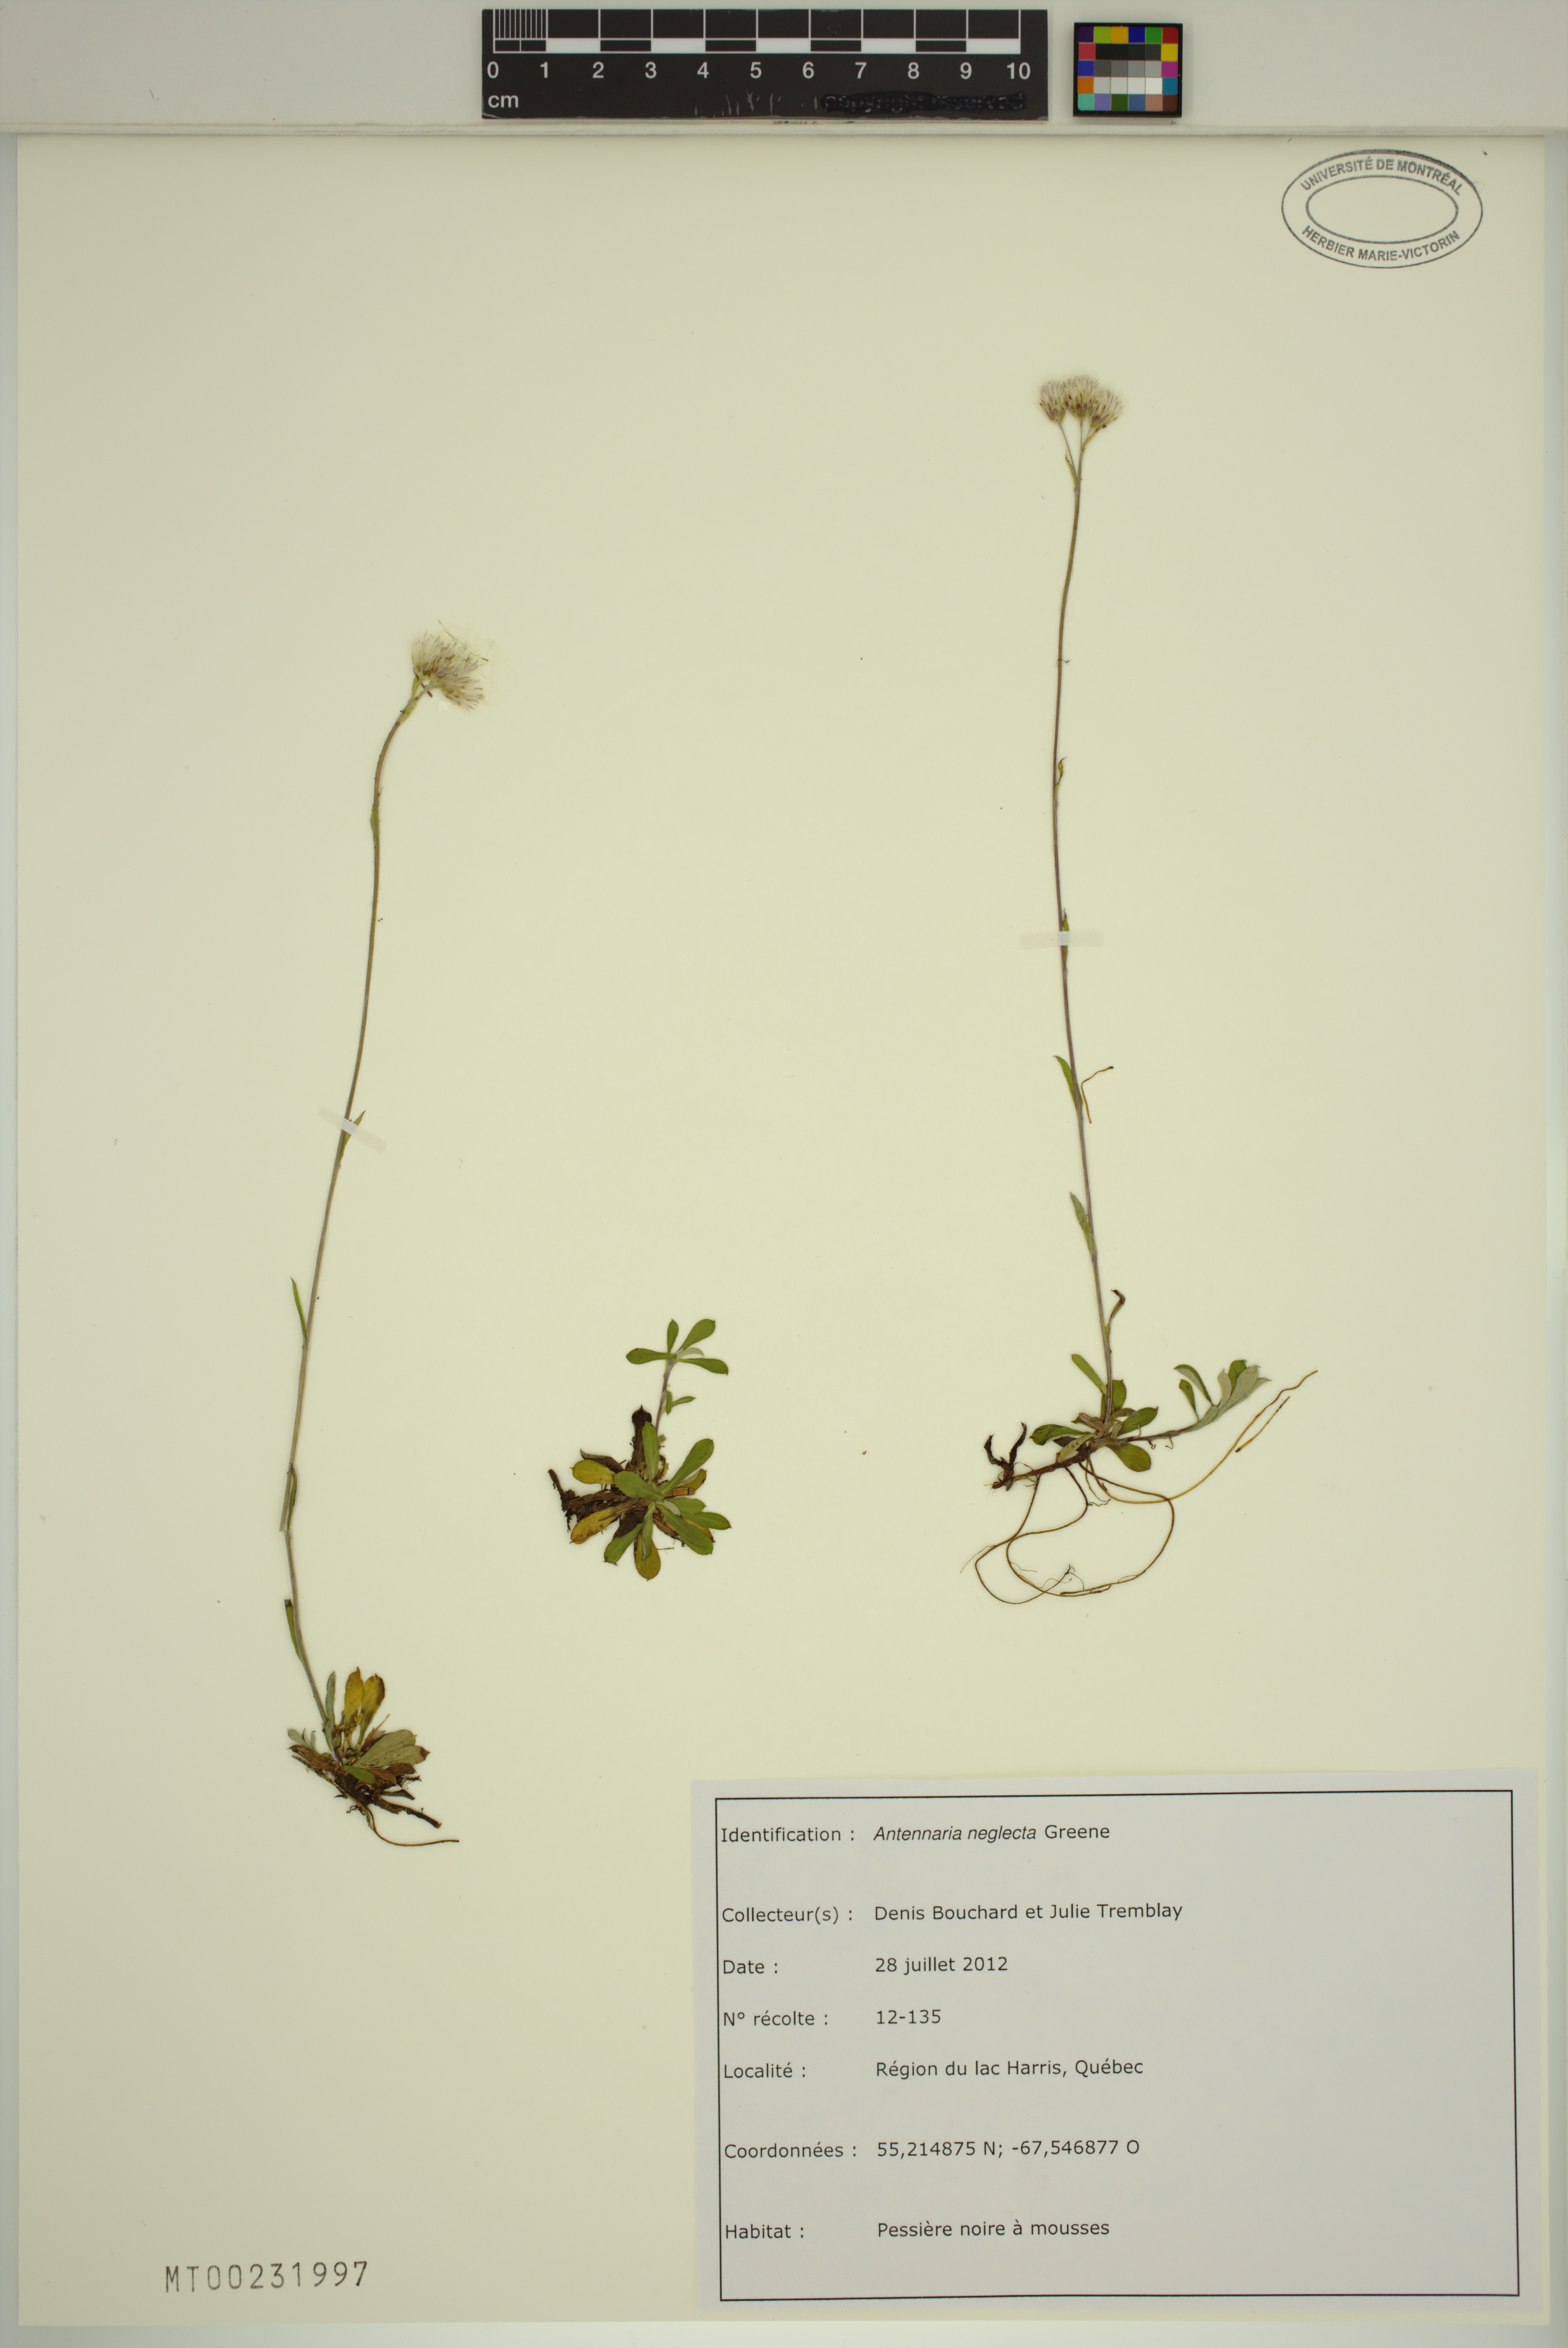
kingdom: Plantae
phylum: Tracheophyta
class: Magnoliopsida
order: Asterales
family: Asteraceae
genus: Antennaria
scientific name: Antennaria howellii
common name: Howell's pussytoes
